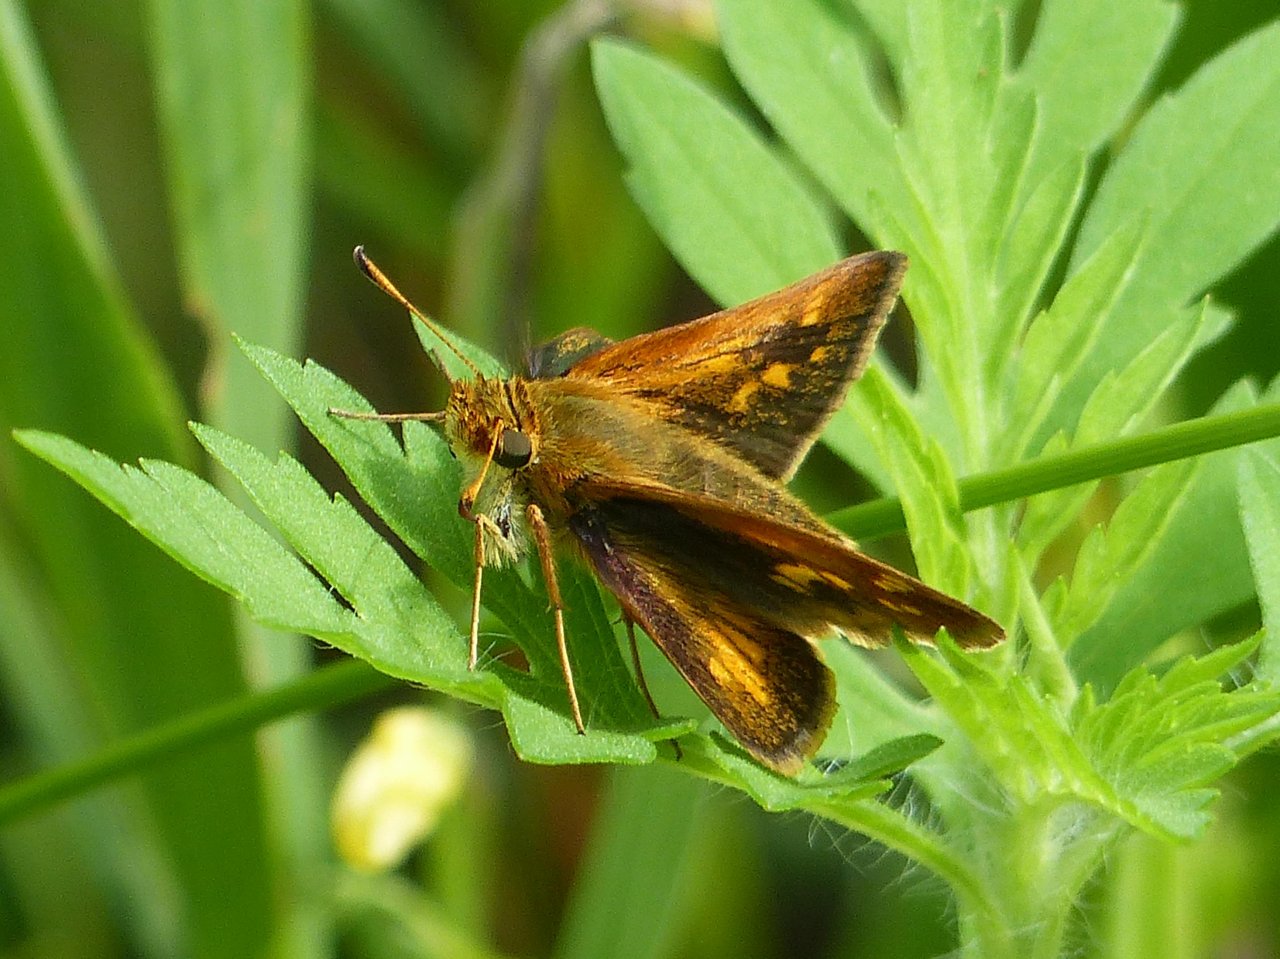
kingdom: Animalia
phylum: Arthropoda
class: Insecta
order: Lepidoptera
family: Hesperiidae
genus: Polites
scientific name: Polites coras
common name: Peck's Skipper
